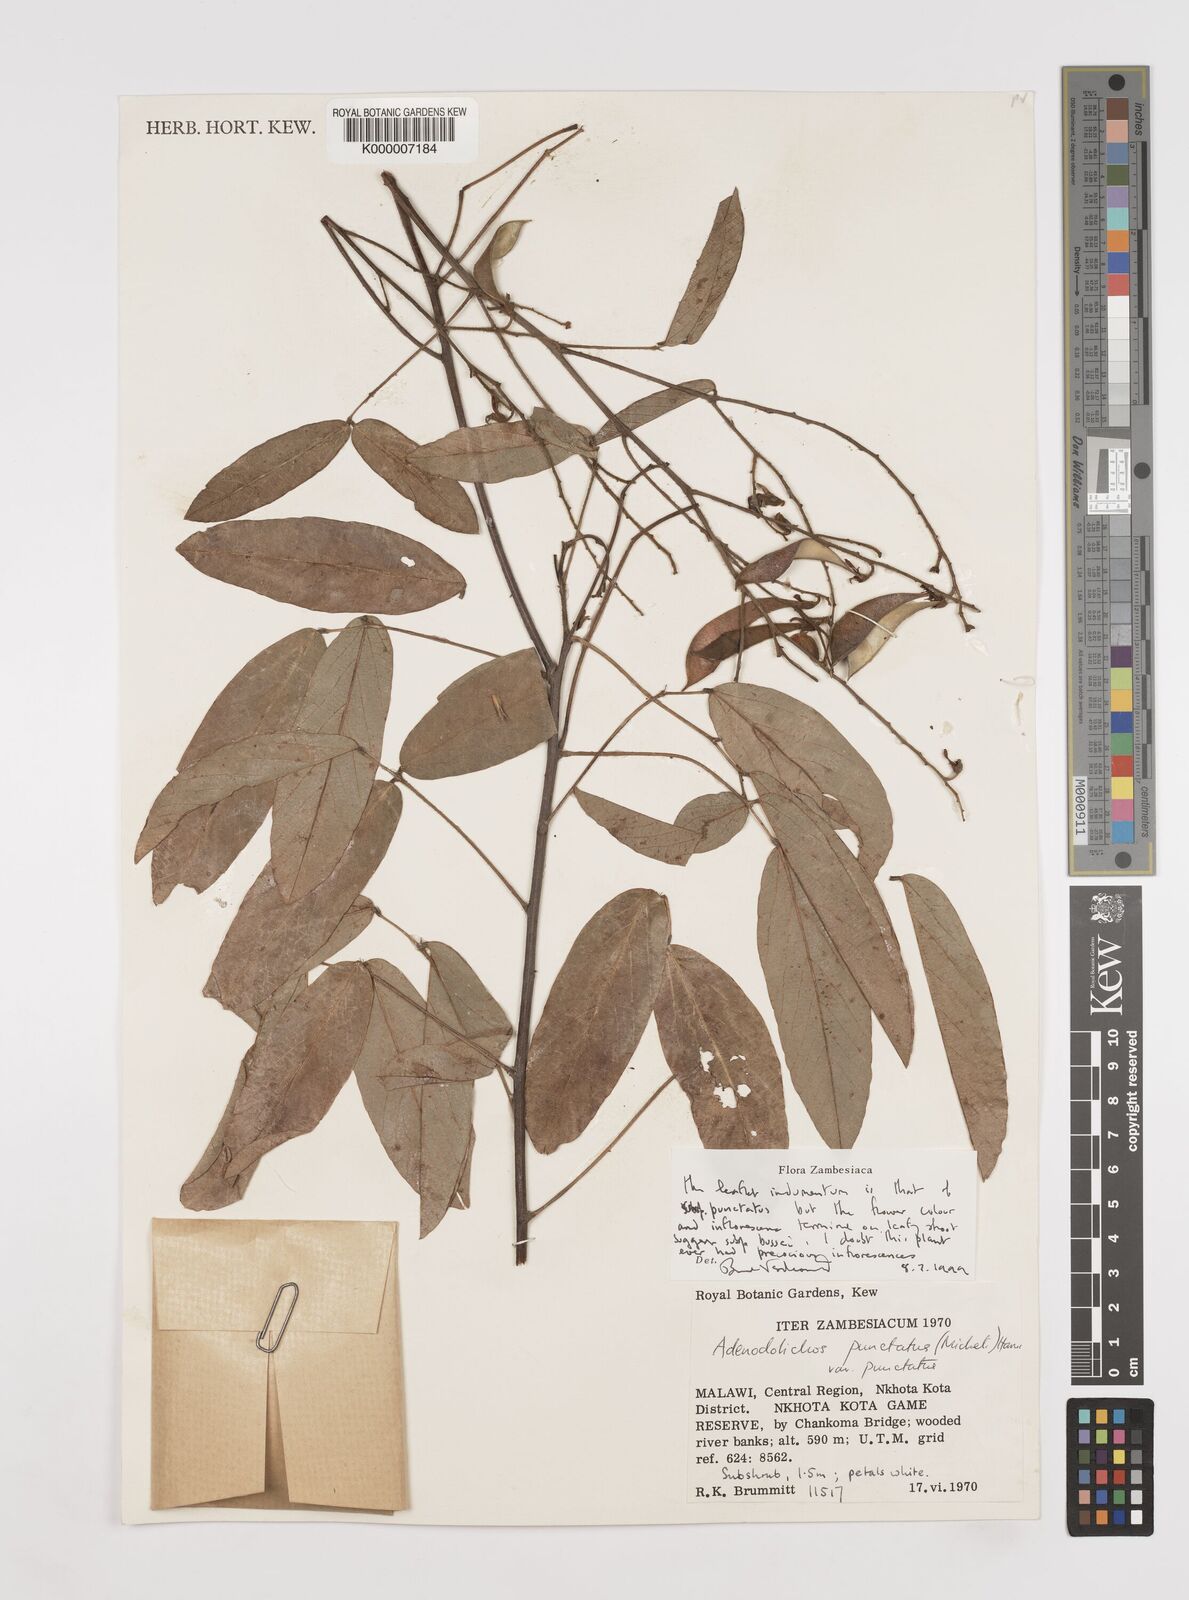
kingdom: Plantae
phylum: Tracheophyta
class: Magnoliopsida
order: Fabales
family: Fabaceae
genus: Adenodolichos
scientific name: Adenodolichos punctatus
